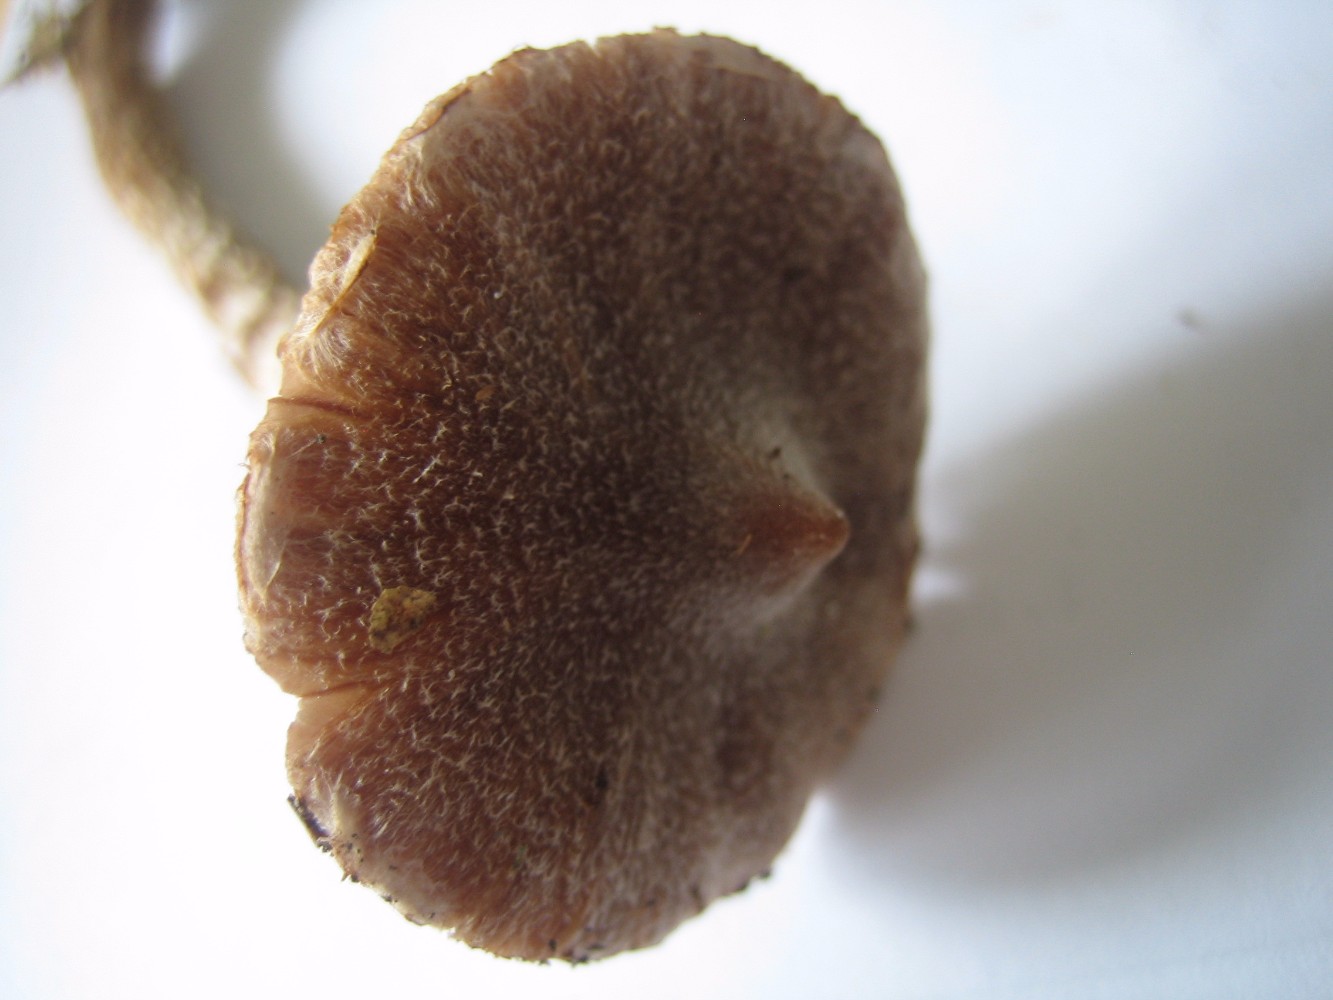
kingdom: Fungi
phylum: Basidiomycota
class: Agaricomycetes
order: Agaricales
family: Cortinariaceae
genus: Cortinarius
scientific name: Cortinarius
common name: pelargonie-slørhat
